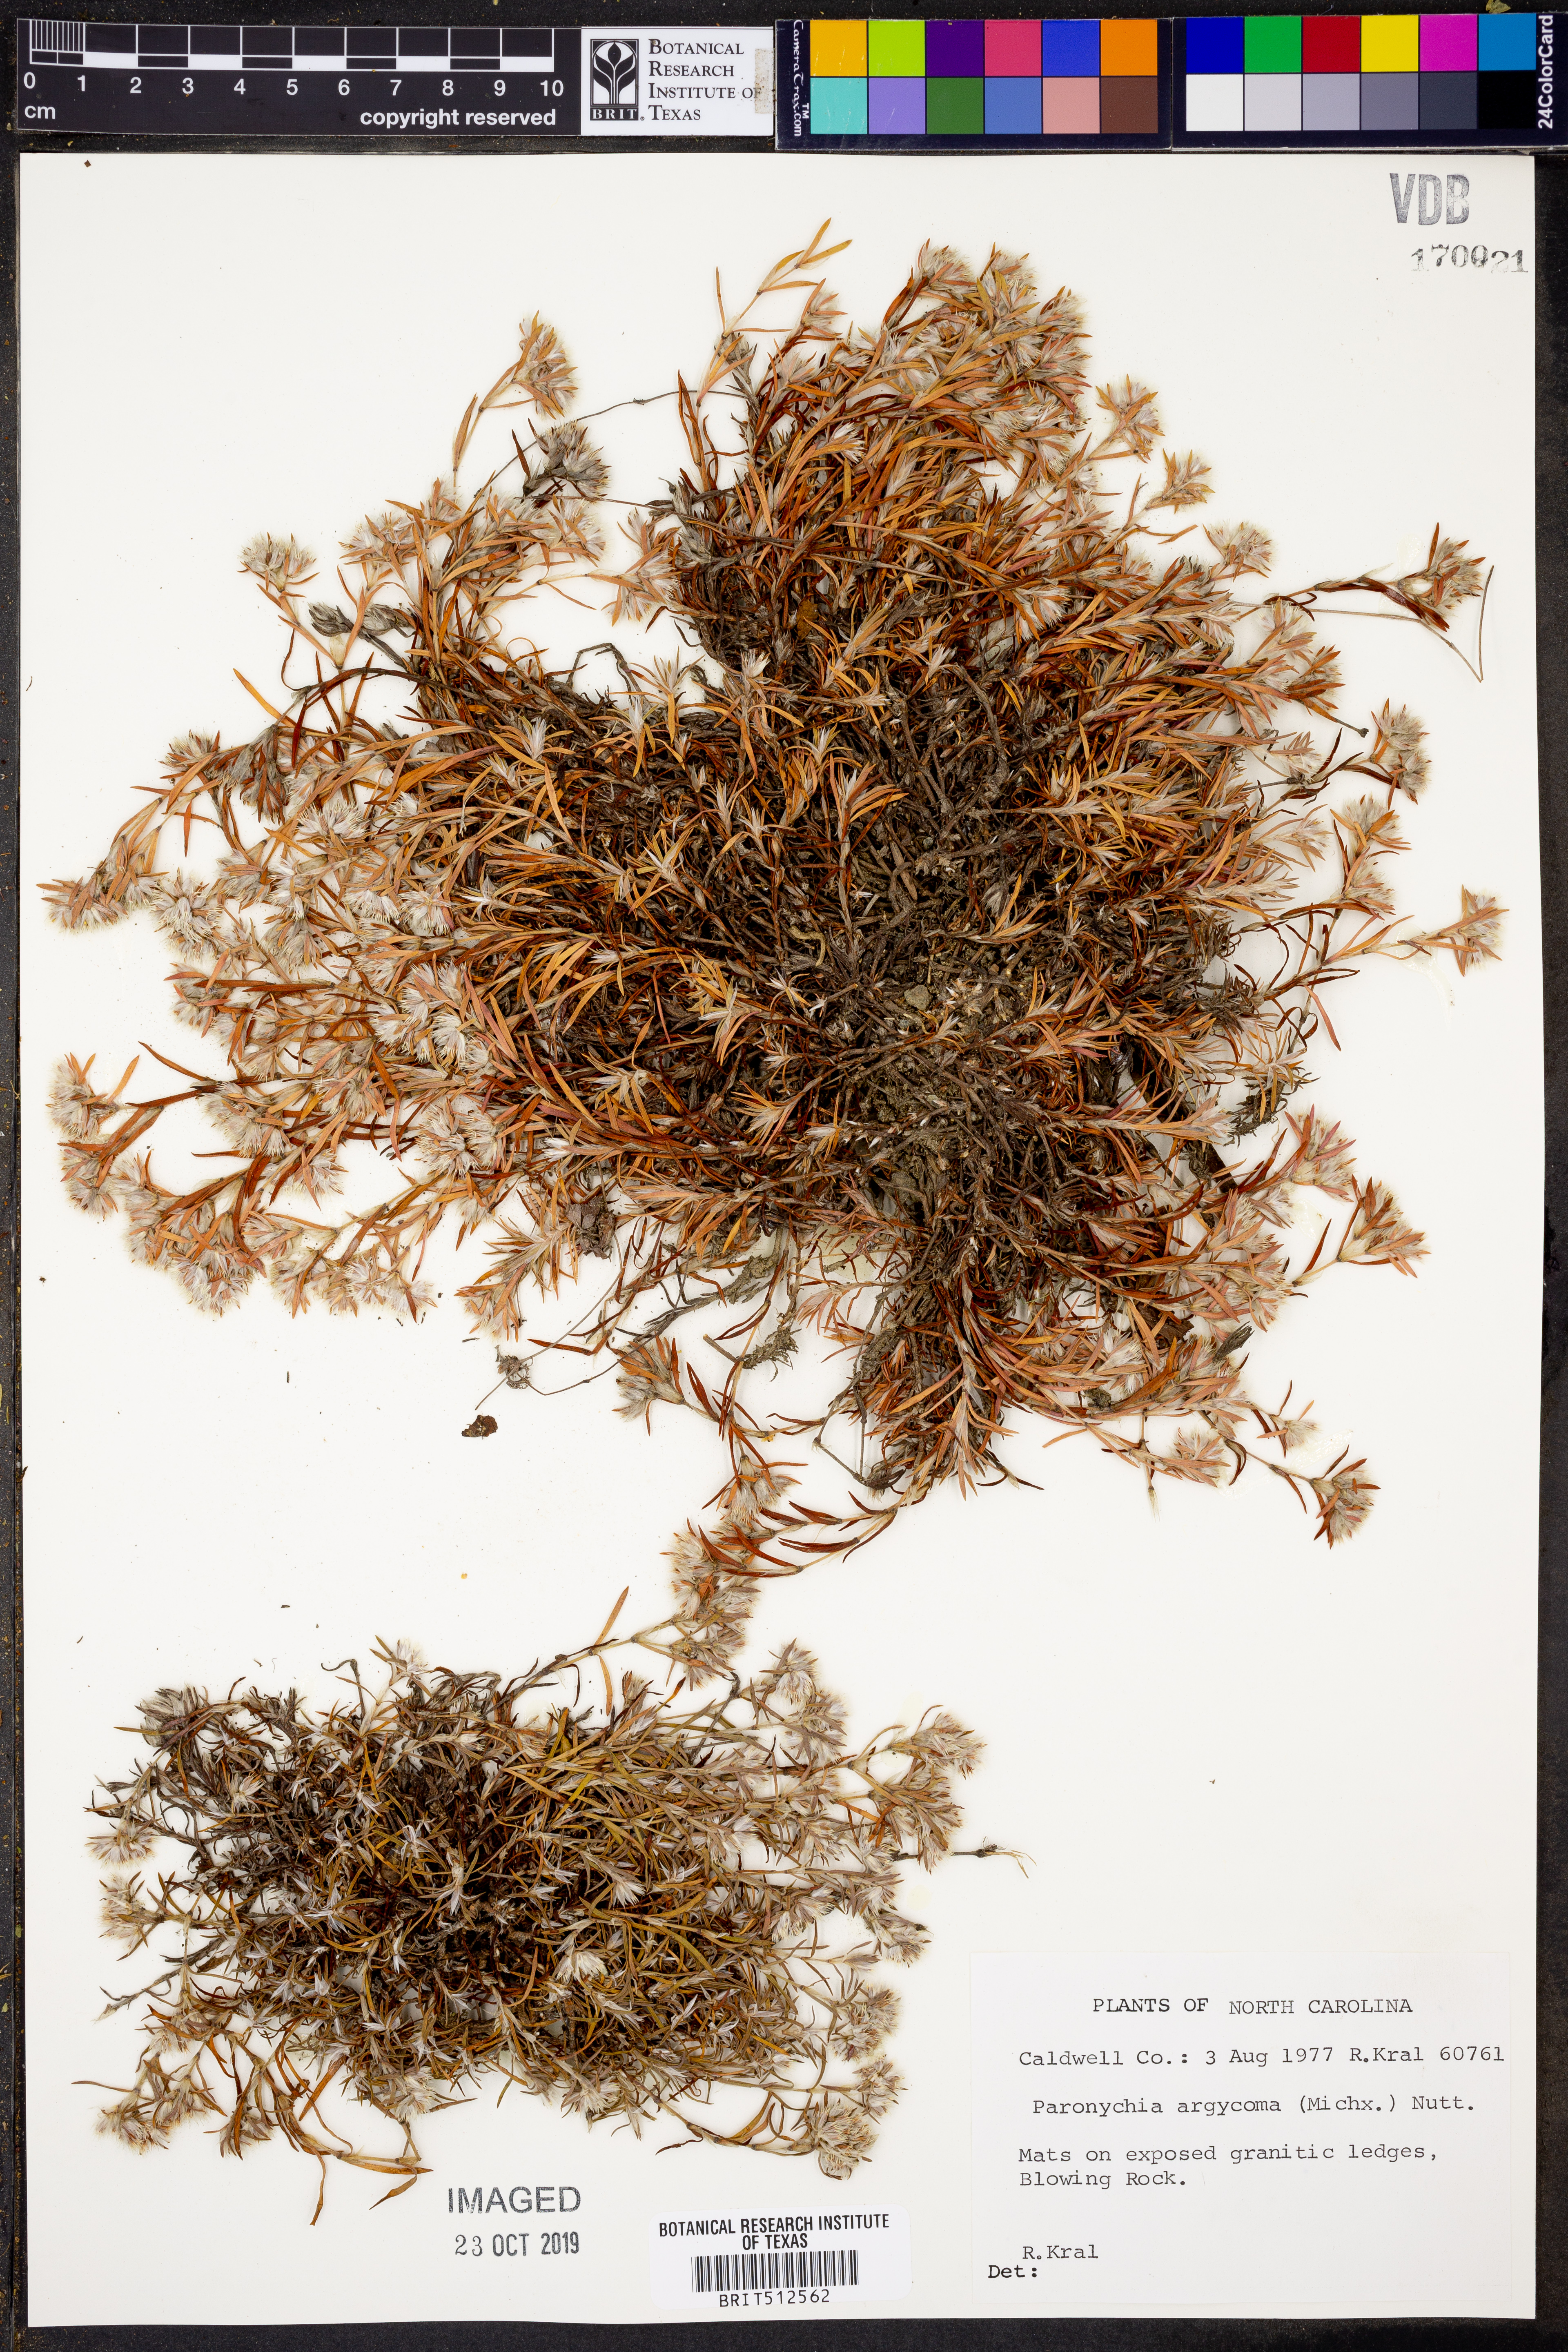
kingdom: Plantae
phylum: Tracheophyta
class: Magnoliopsida
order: Caryophyllales
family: Caryophyllaceae
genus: Paronychia
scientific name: Paronychia argyrocoma
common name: Silverling
